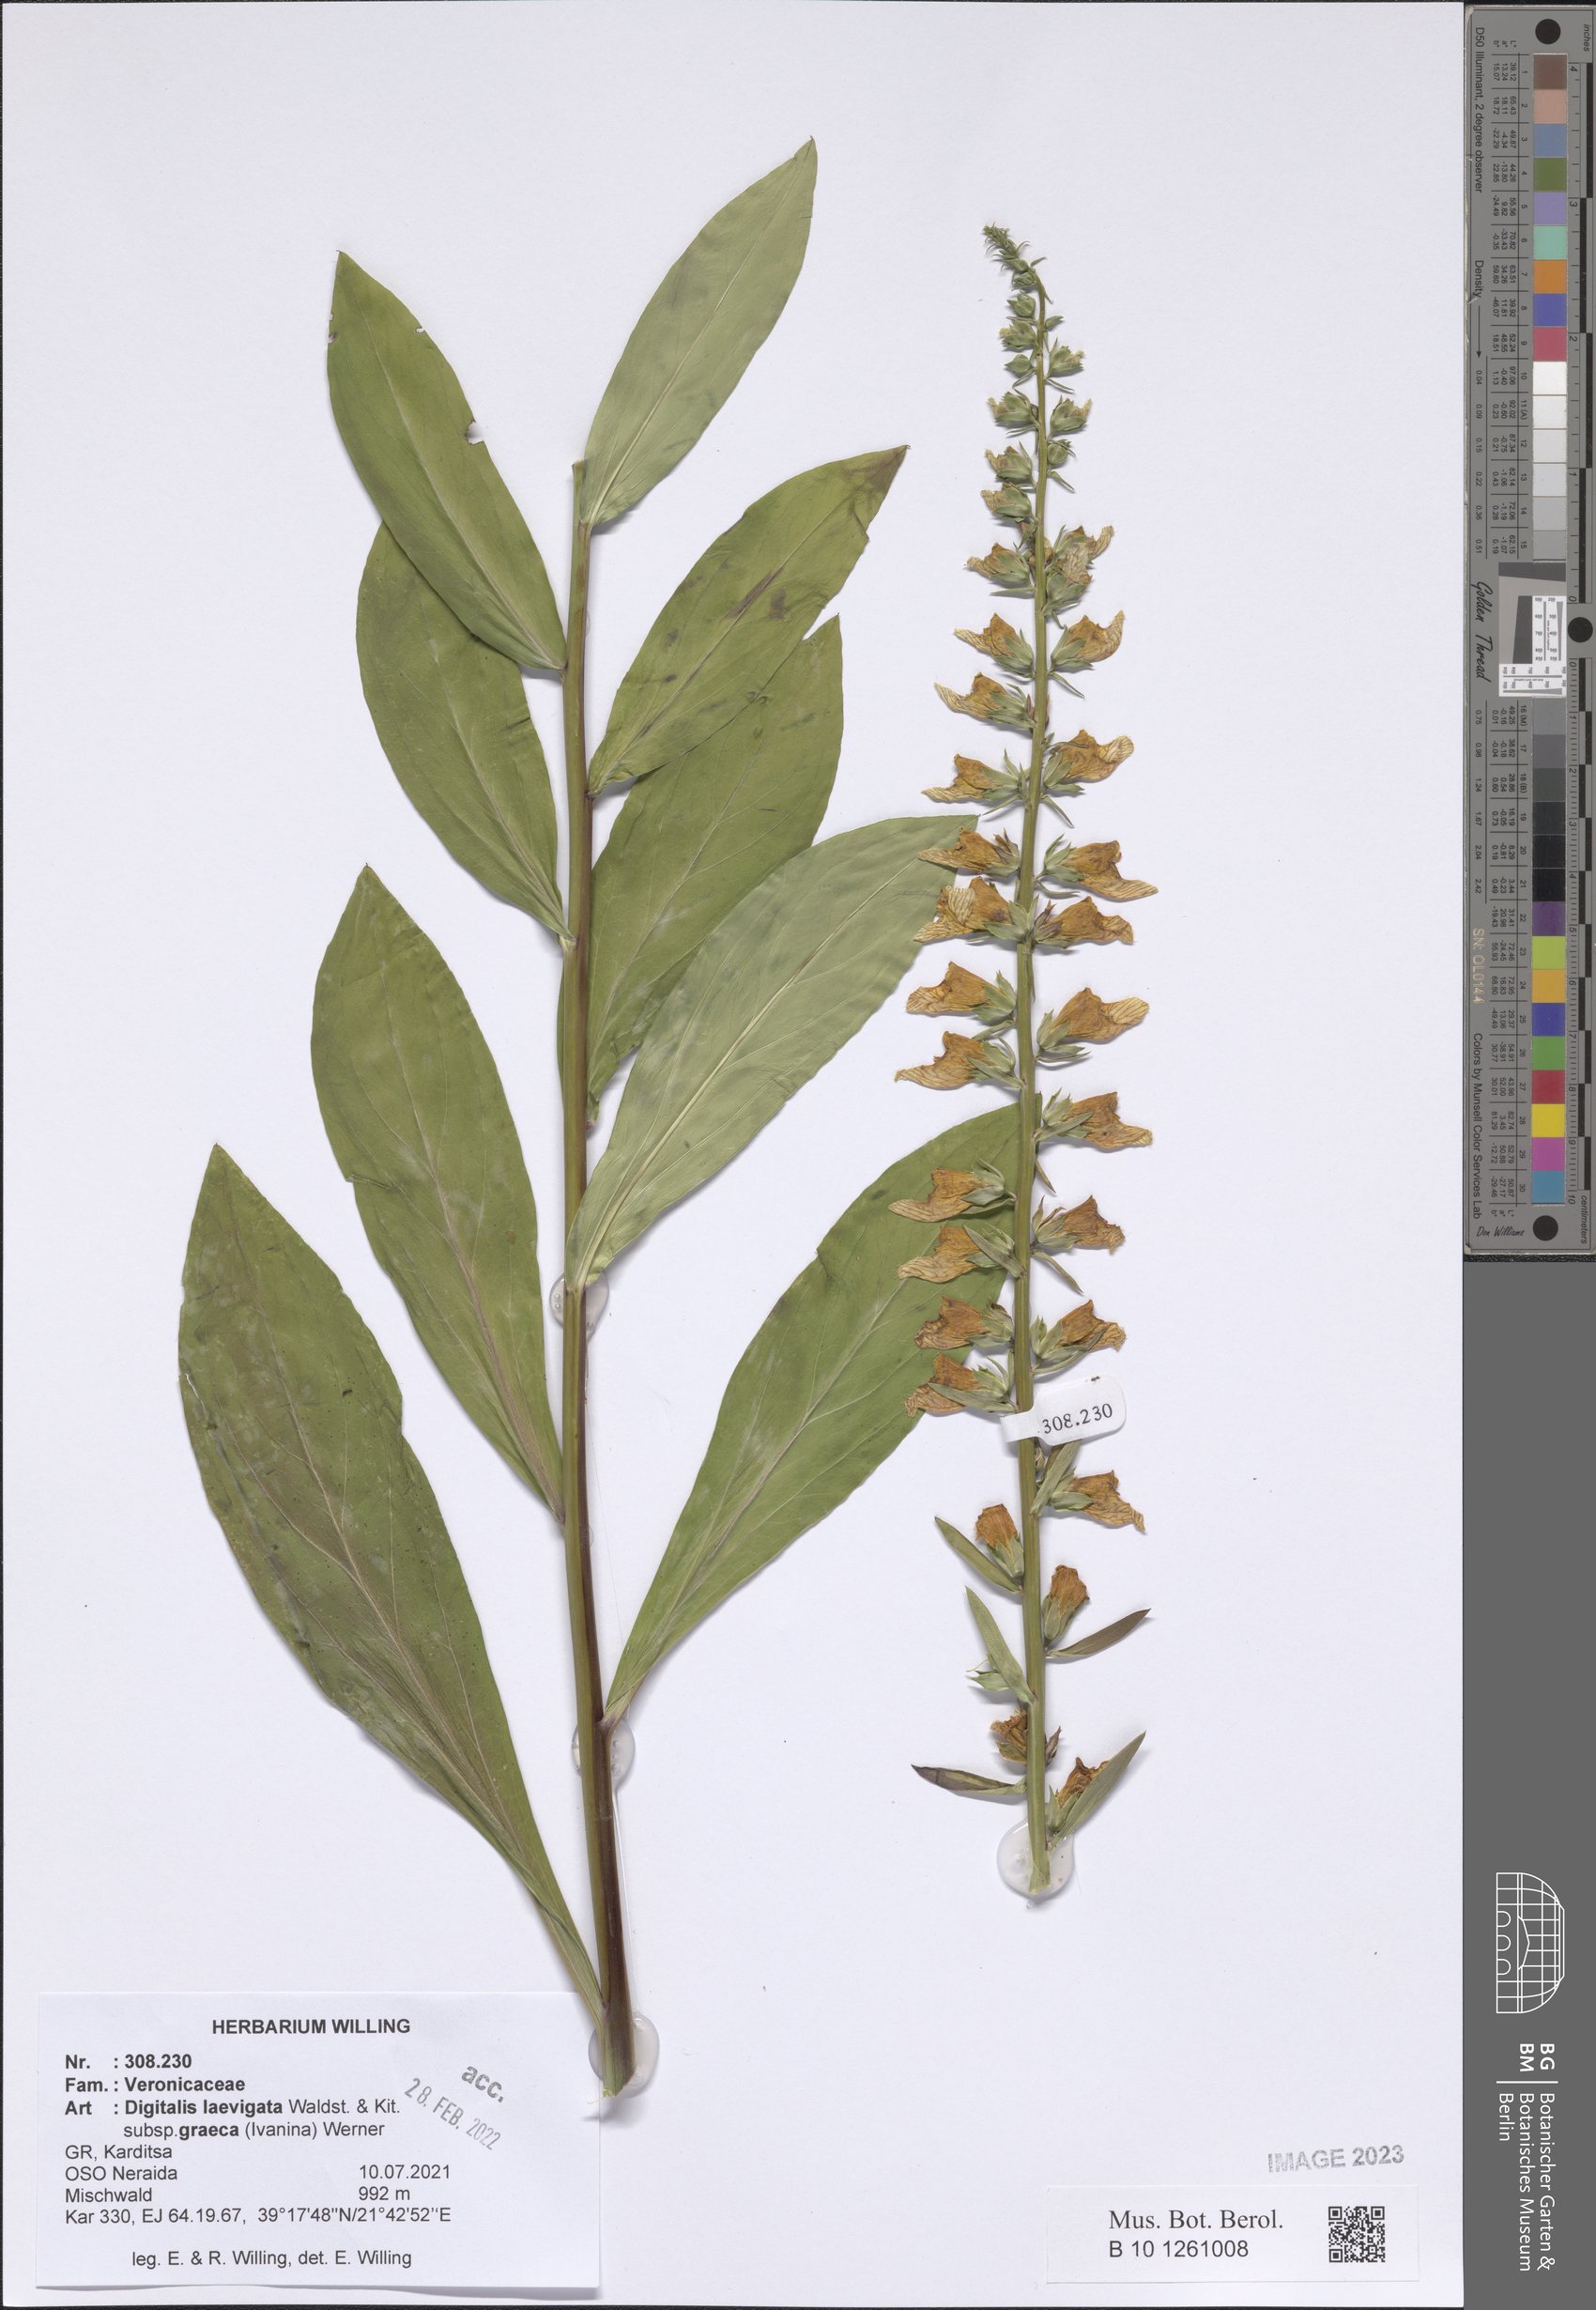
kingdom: Plantae
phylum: Tracheophyta
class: Magnoliopsida
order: Lamiales
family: Plantaginaceae
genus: Digitalis
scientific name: Digitalis laevigata
